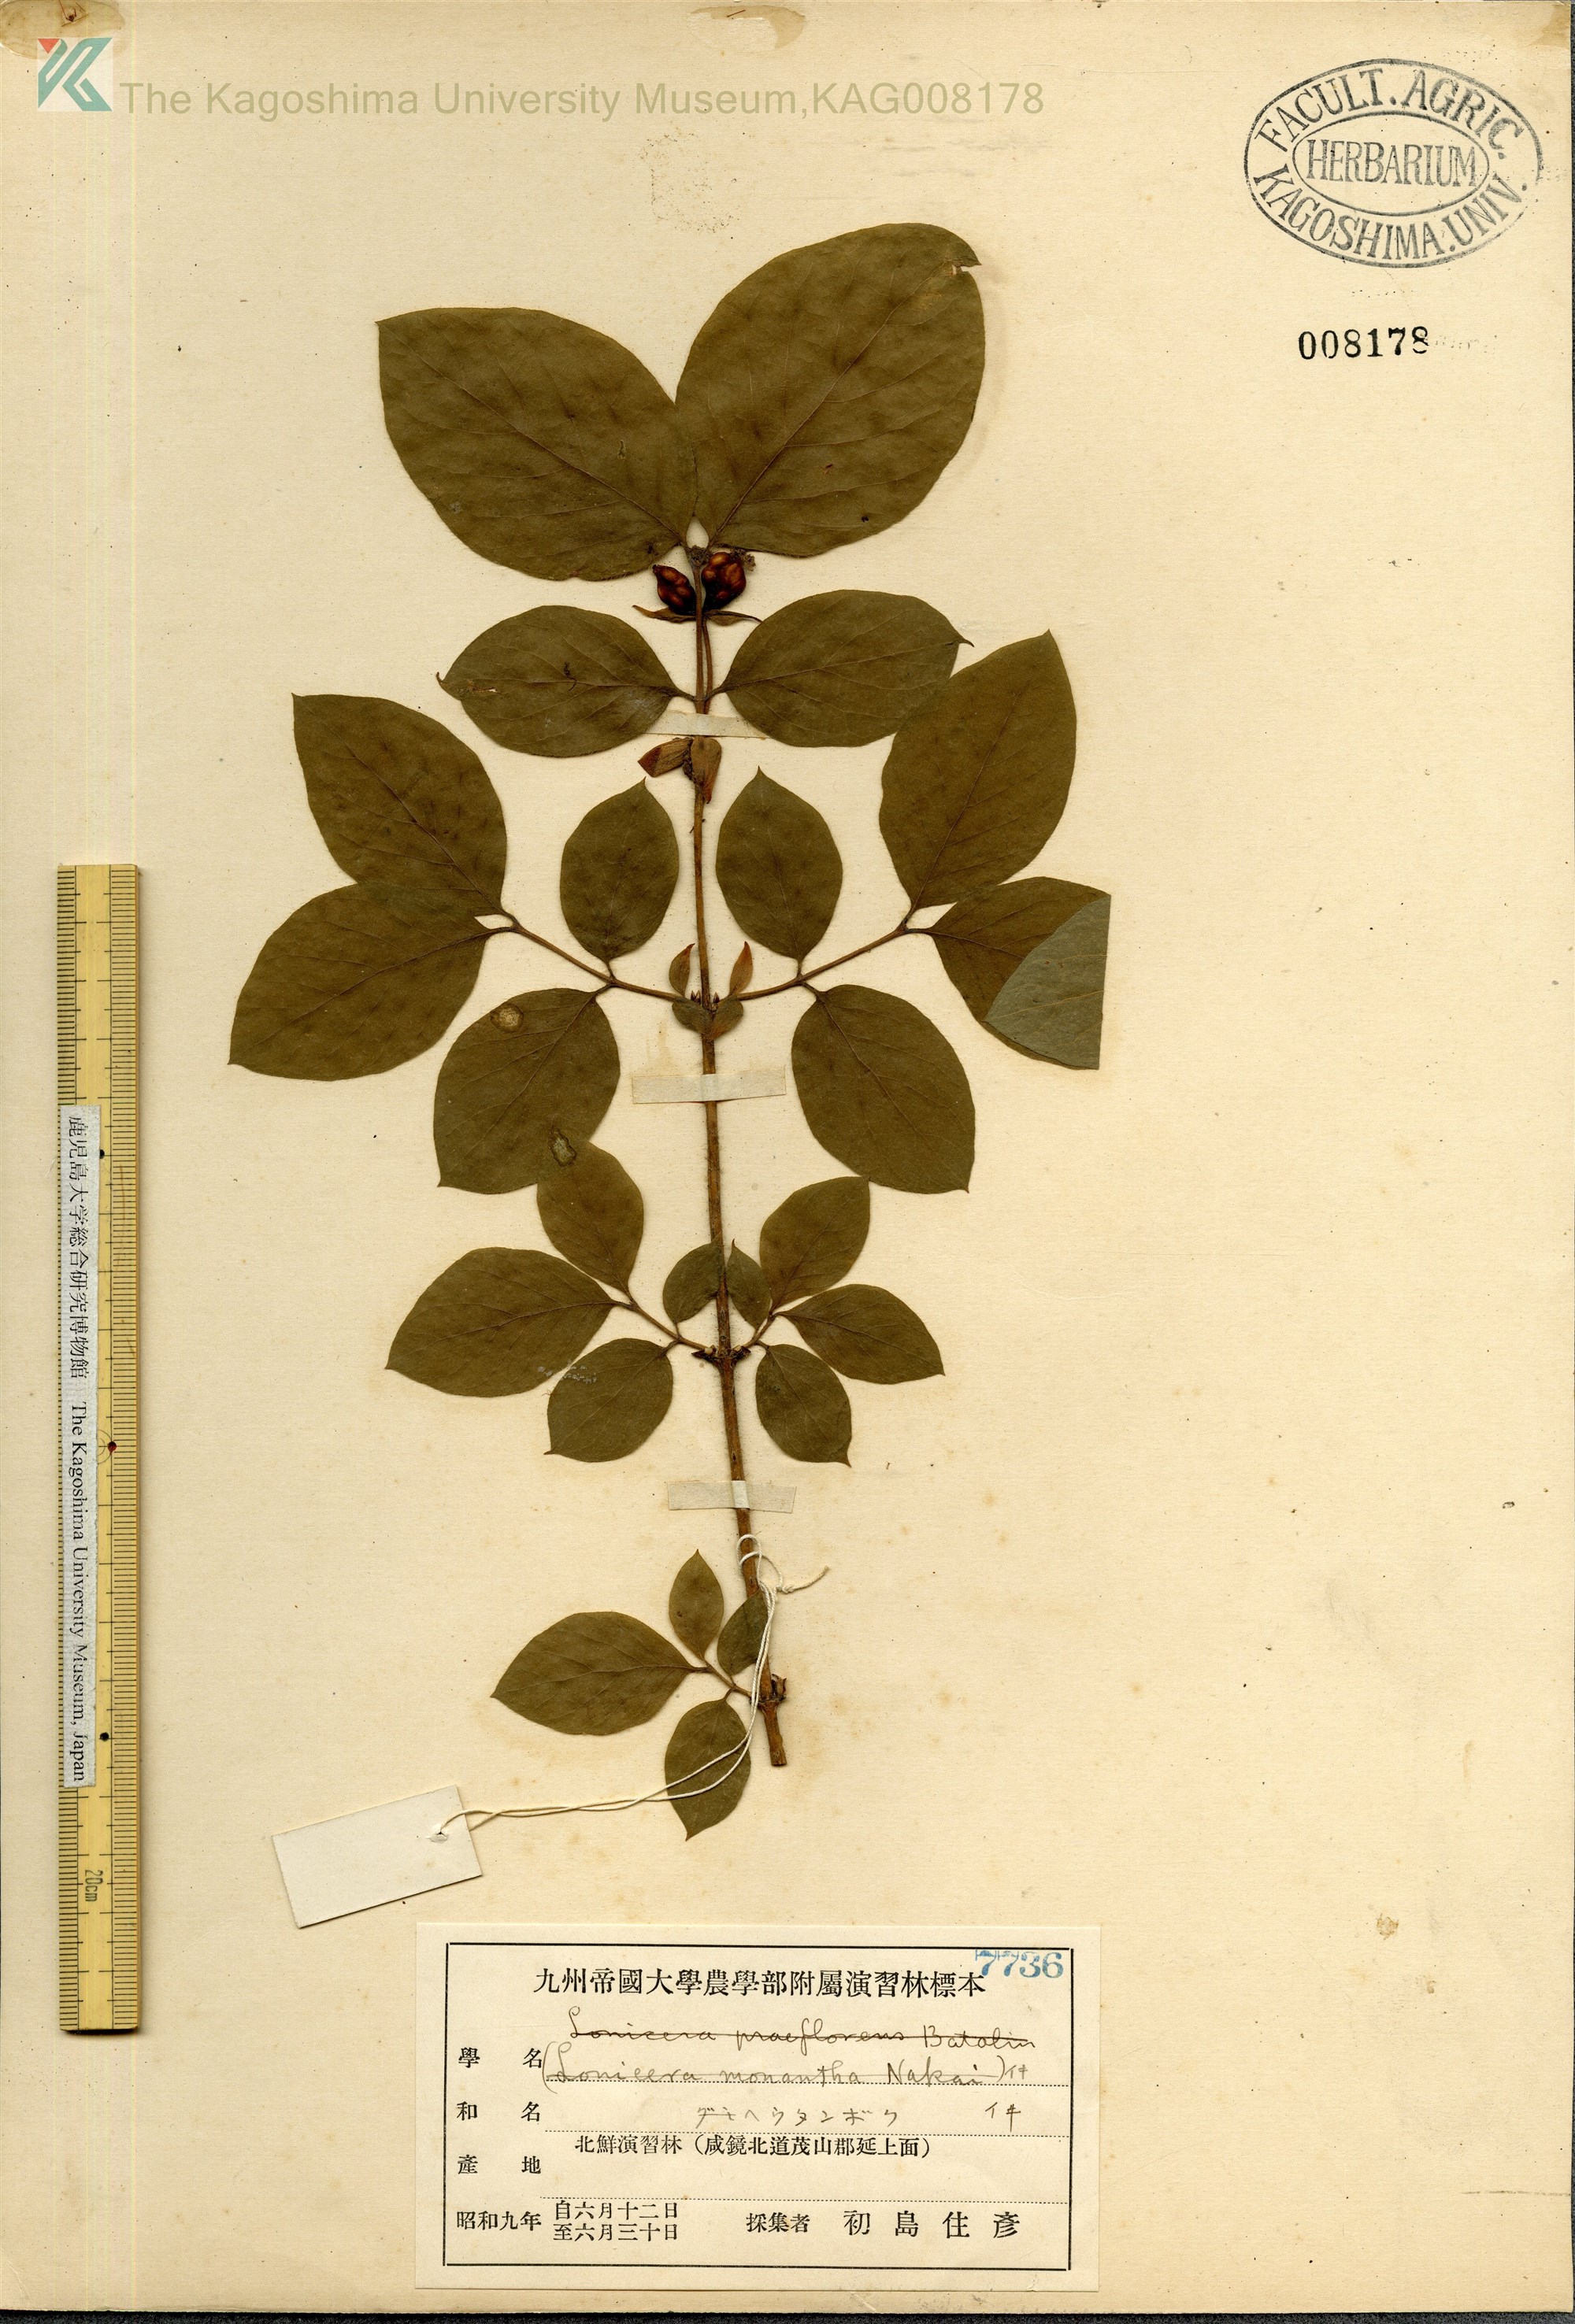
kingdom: Plantae
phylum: Tracheophyta
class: Magnoliopsida
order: Dipsacales
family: Caprifoliaceae
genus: Lonicera
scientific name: Lonicera subhispida
